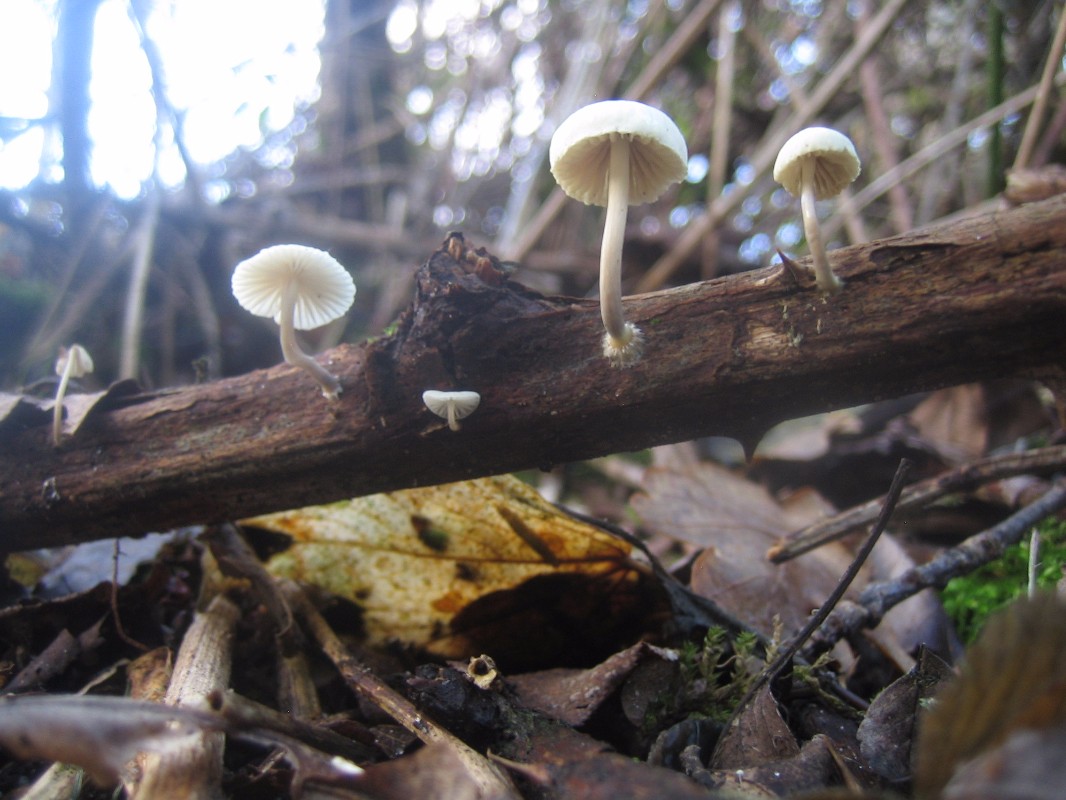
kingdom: Fungi
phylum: Basidiomycota
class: Agaricomycetes
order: Agaricales
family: Mycenaceae
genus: Mycena
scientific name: Mycena arcangeliana
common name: oliven-huesvamp
